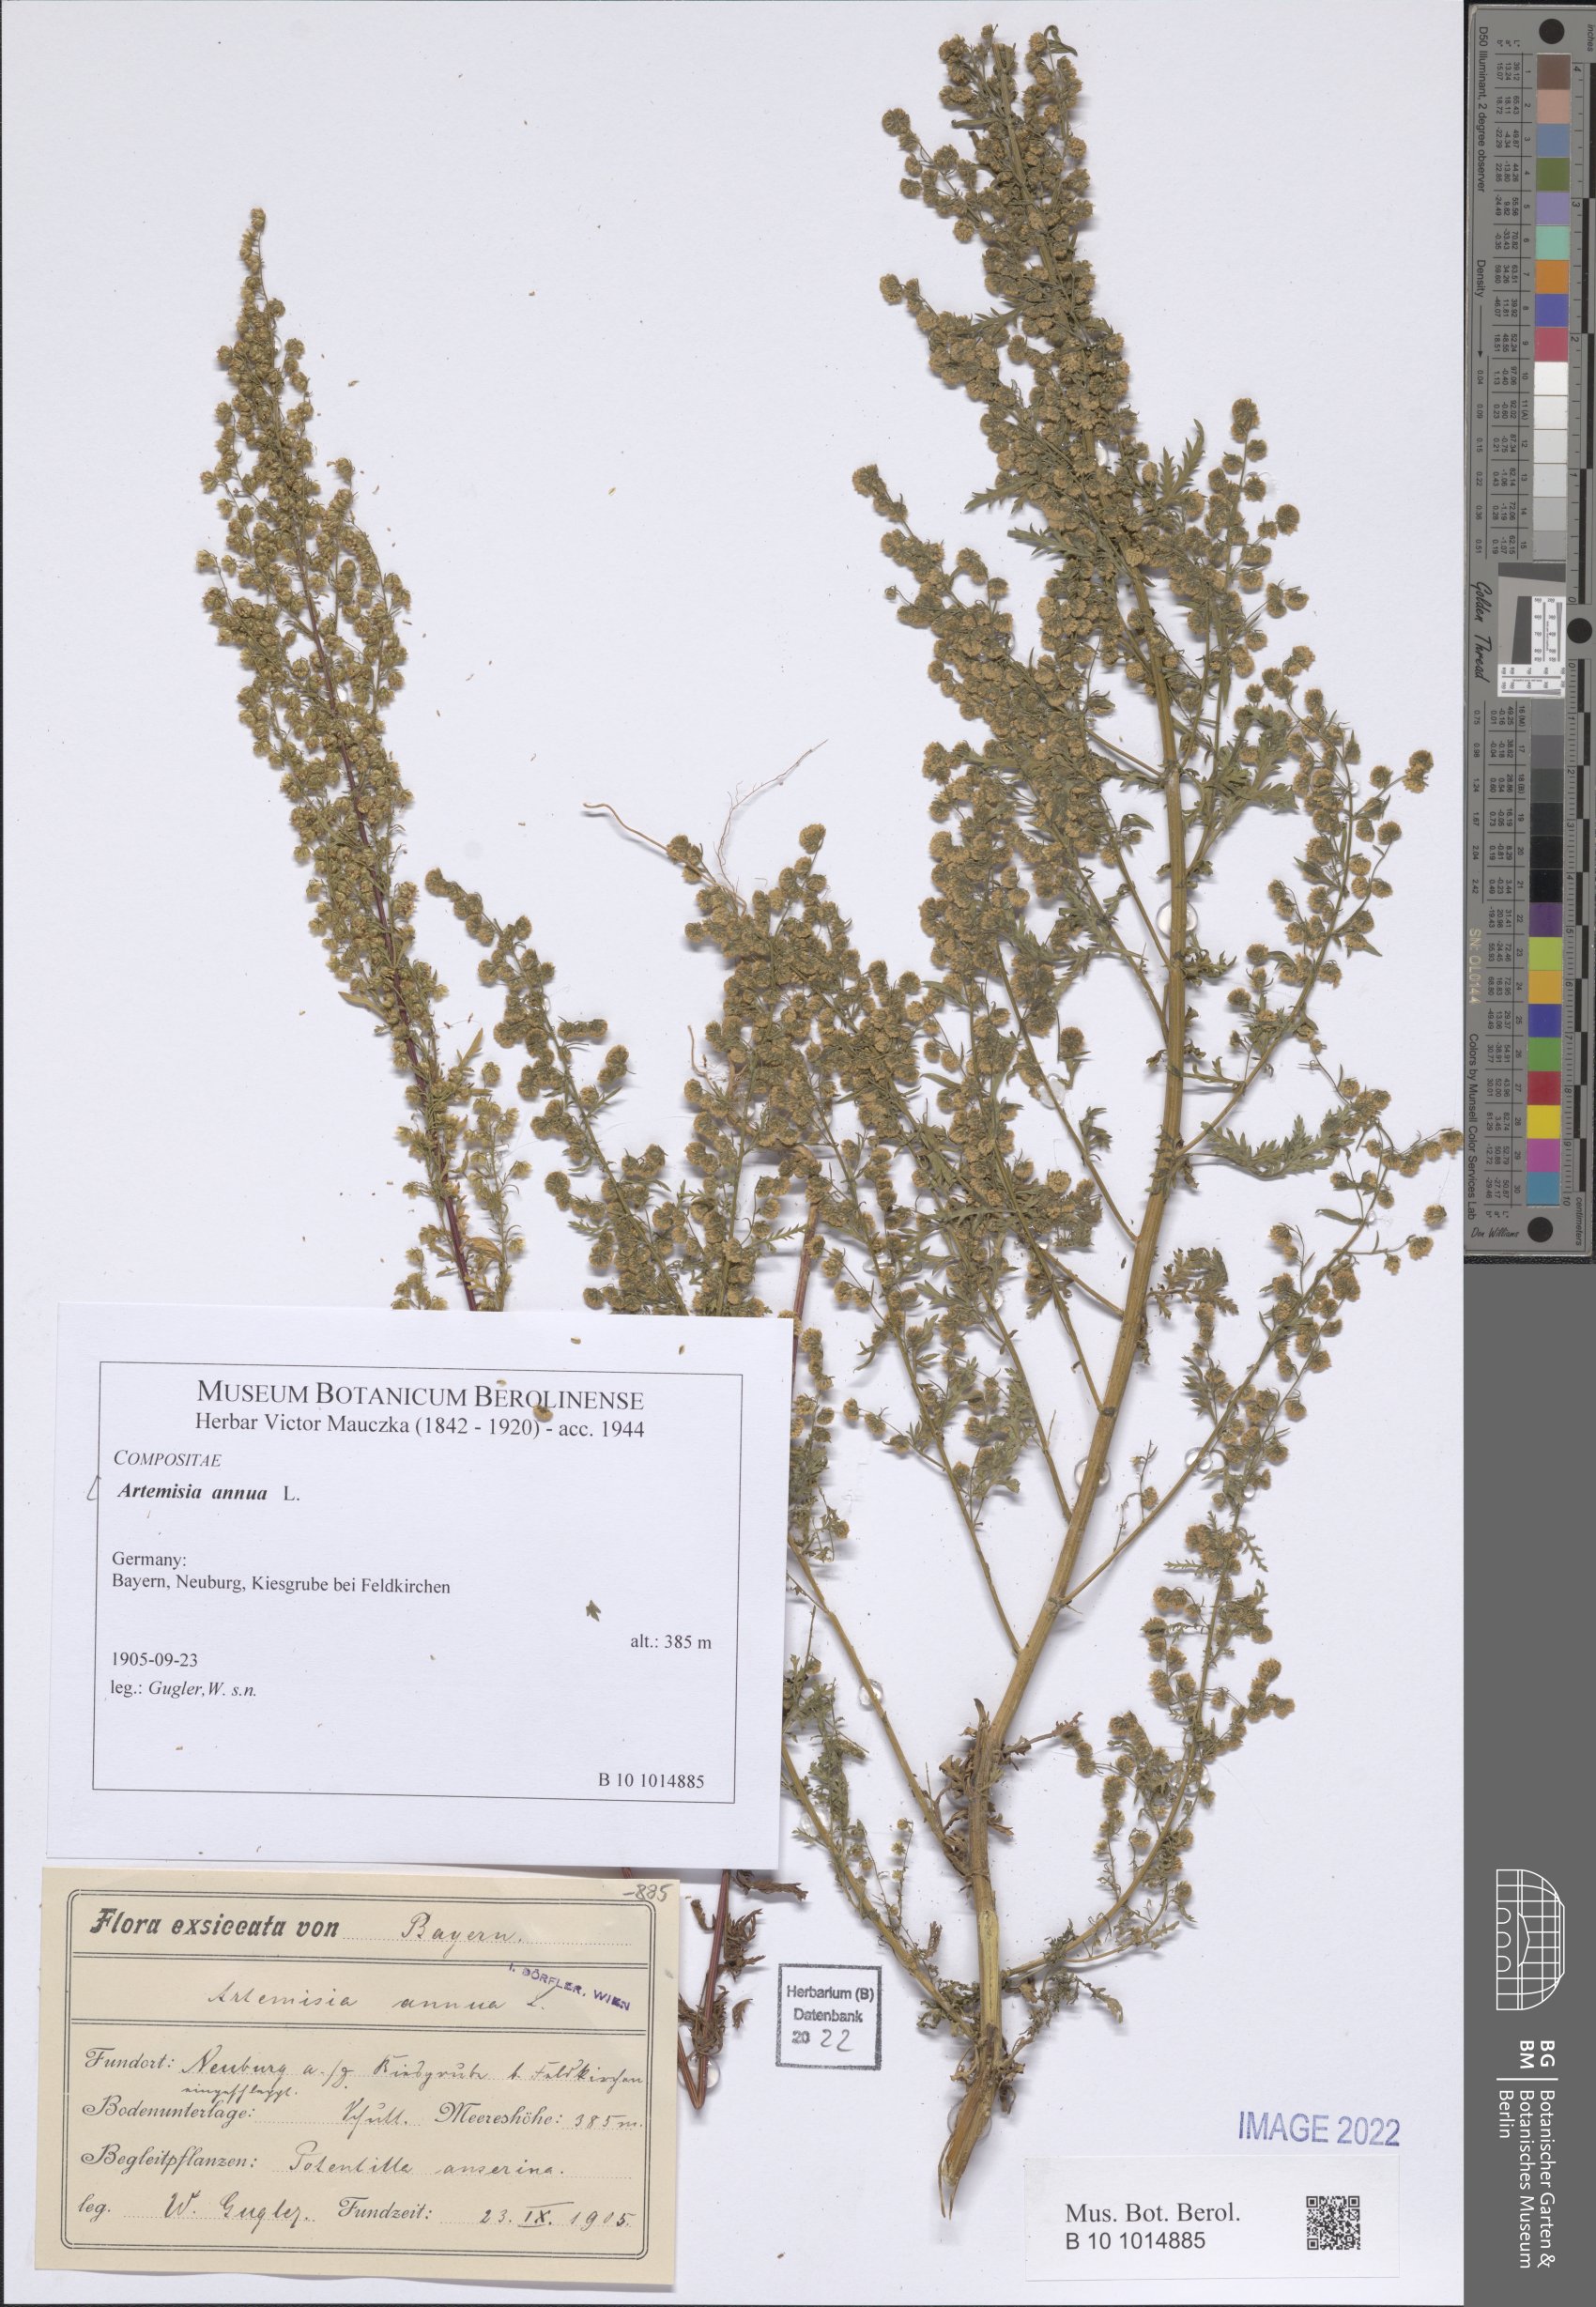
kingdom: Plantae
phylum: Tracheophyta
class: Magnoliopsida
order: Asterales
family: Asteraceae
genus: Artemisia
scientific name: Artemisia annua
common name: Sweet sagewort
